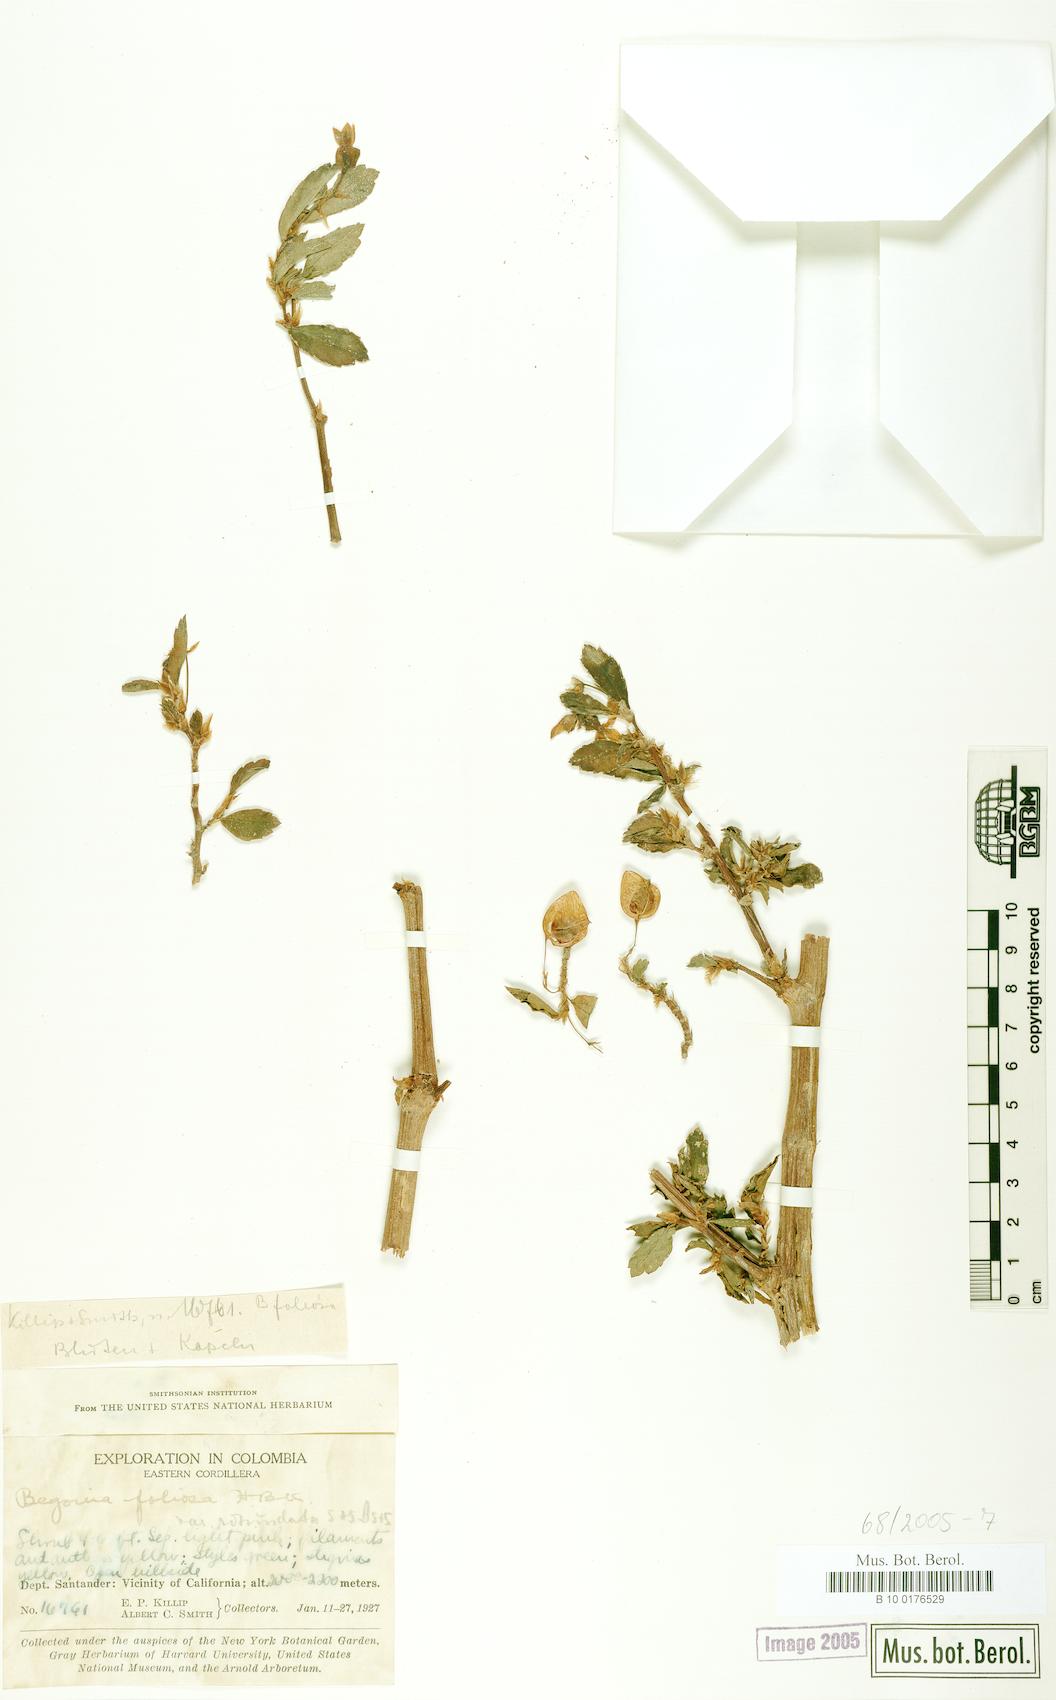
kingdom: Plantae
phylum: Tracheophyta
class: Magnoliopsida
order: Cucurbitales
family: Begoniaceae
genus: Begonia
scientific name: Begonia foliosa
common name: Fern begonia
